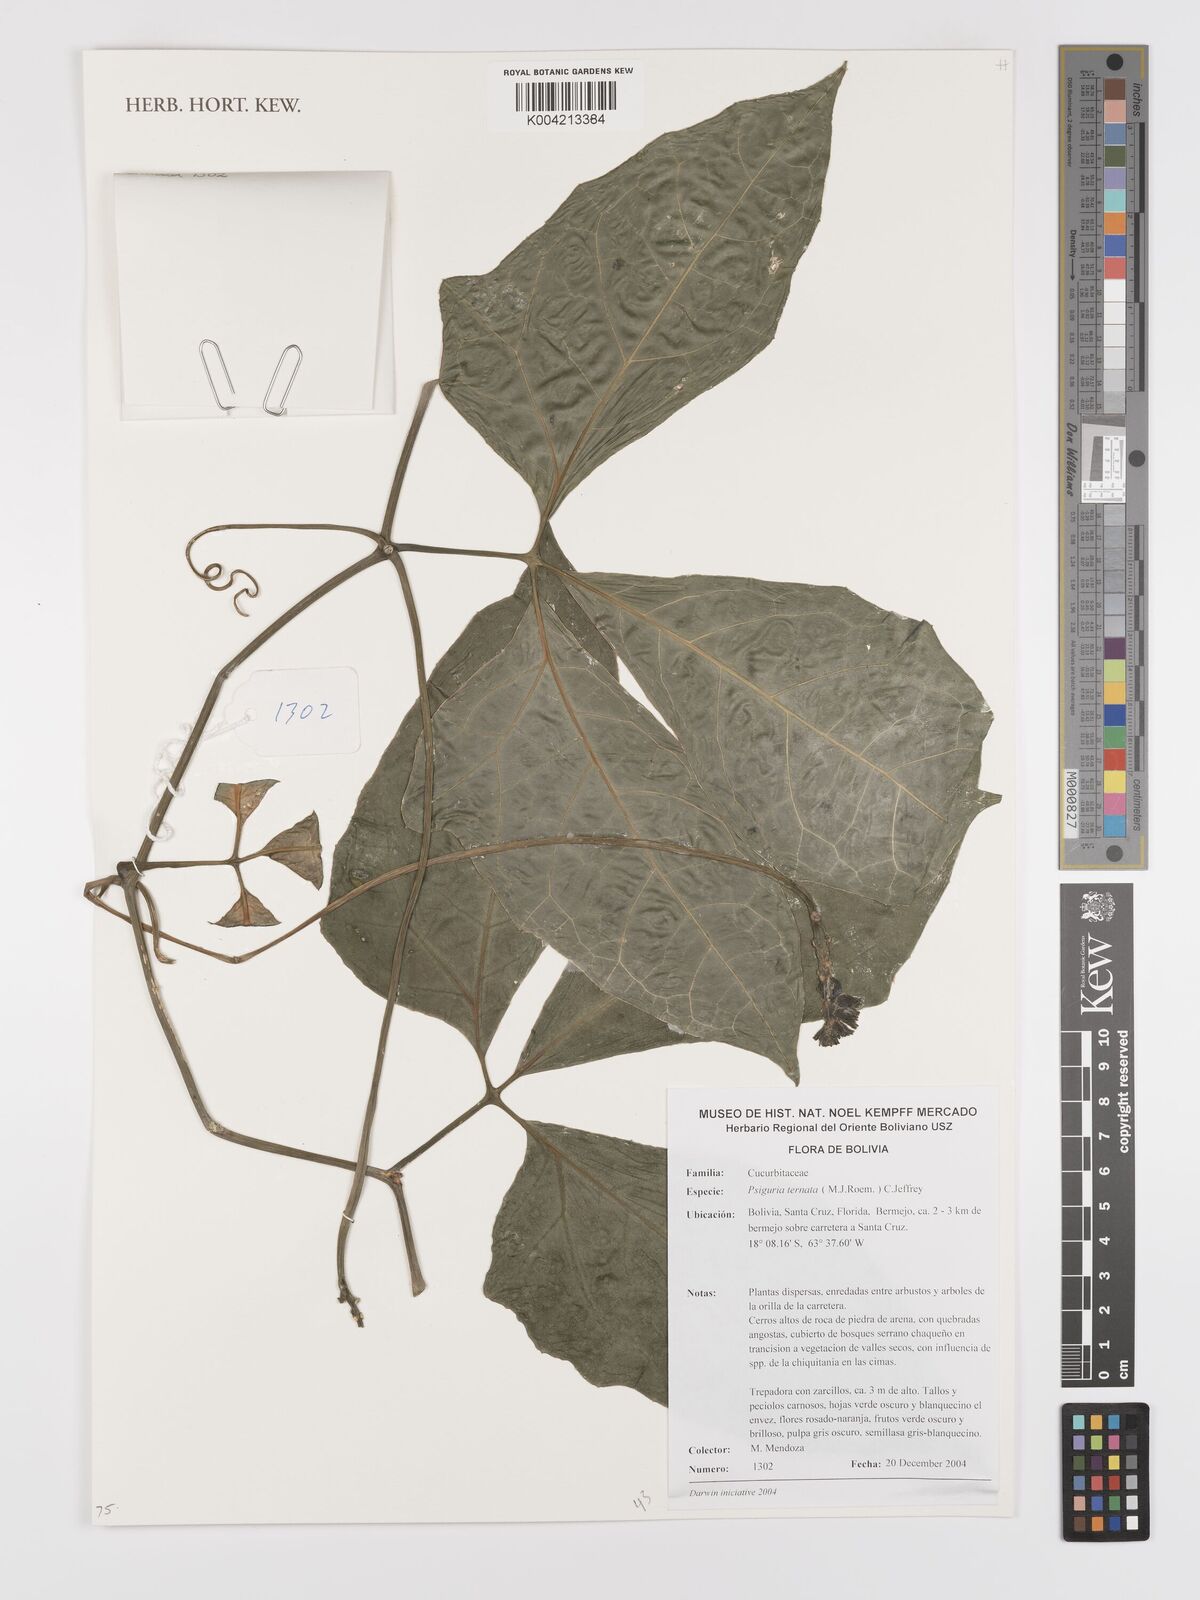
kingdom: Plantae
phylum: Tracheophyta
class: Magnoliopsida
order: Cucurbitales
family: Cucurbitaceae
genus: Psiguria
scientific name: Psiguria ternata
